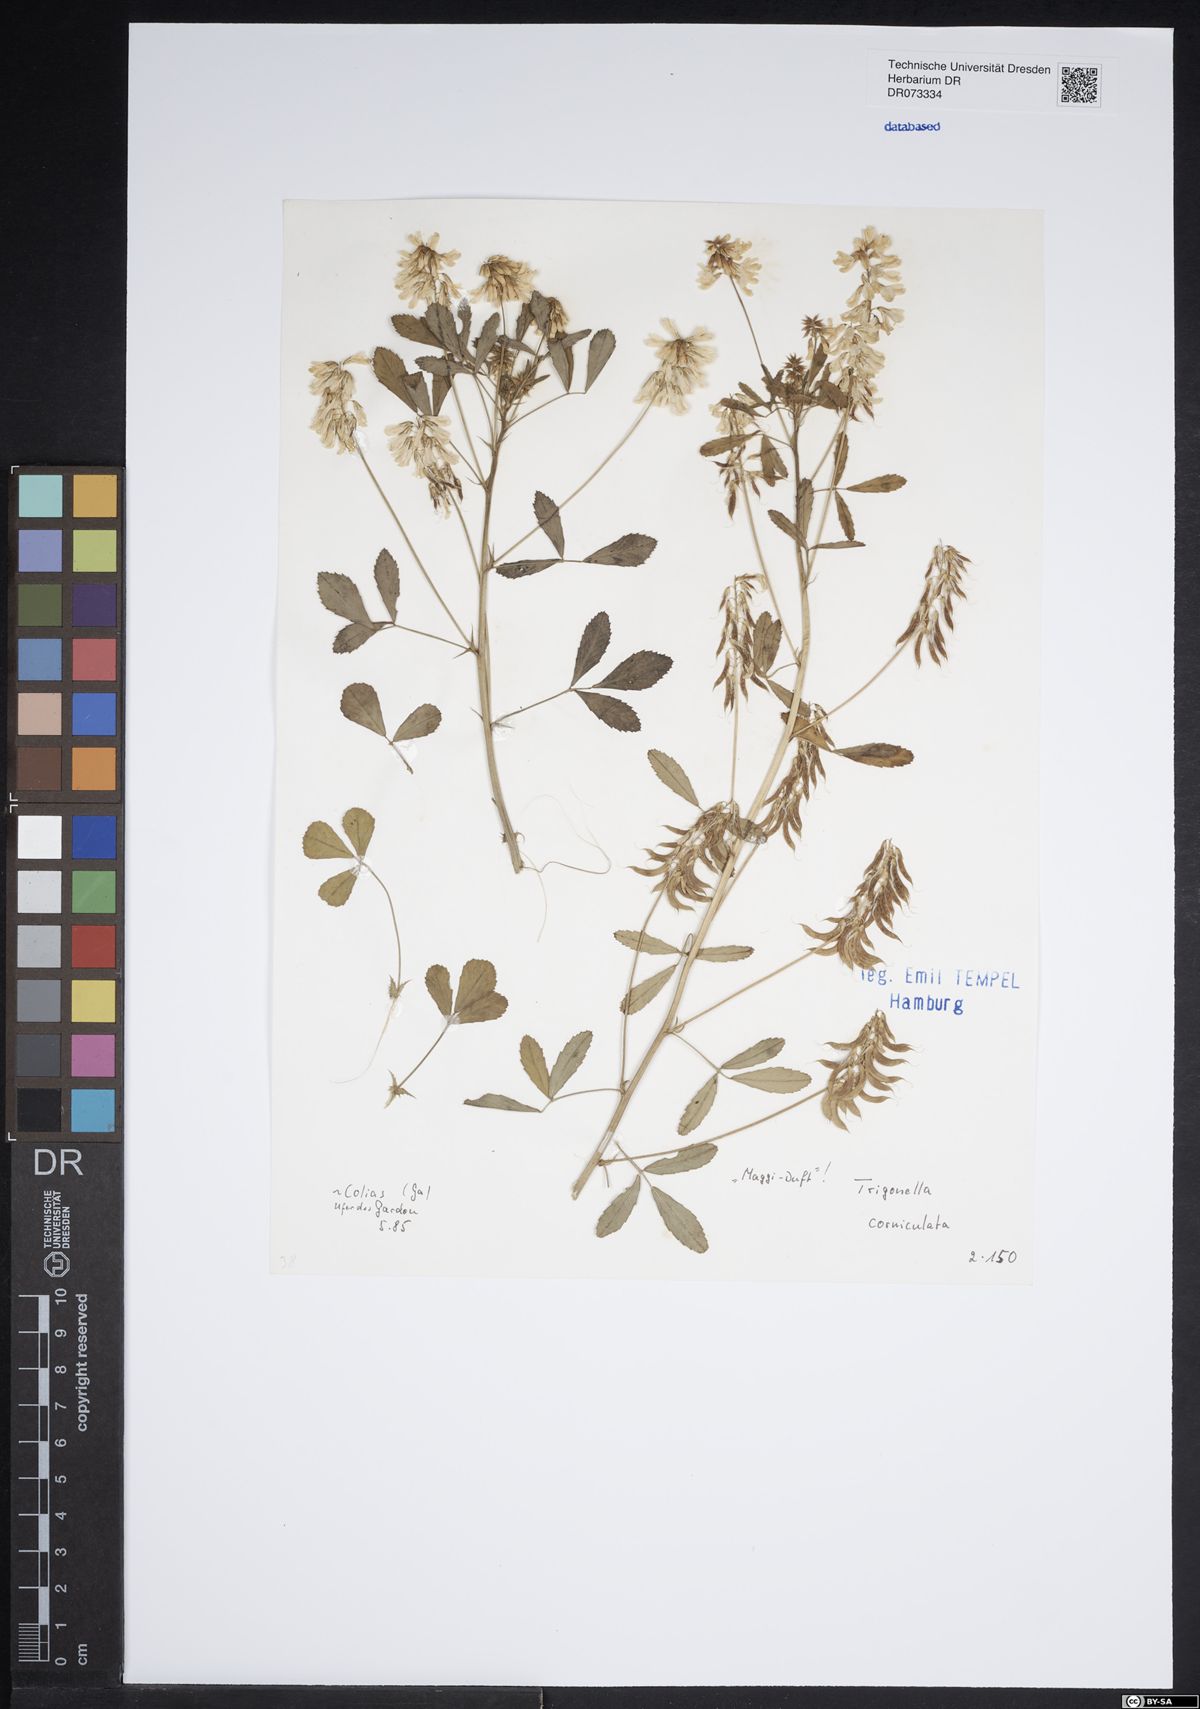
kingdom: Plantae
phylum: Tracheophyta
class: Magnoliopsida
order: Fabales
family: Fabaceae
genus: Trigonella
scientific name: Trigonella balansae
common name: Sickle-fruited fenugreek
